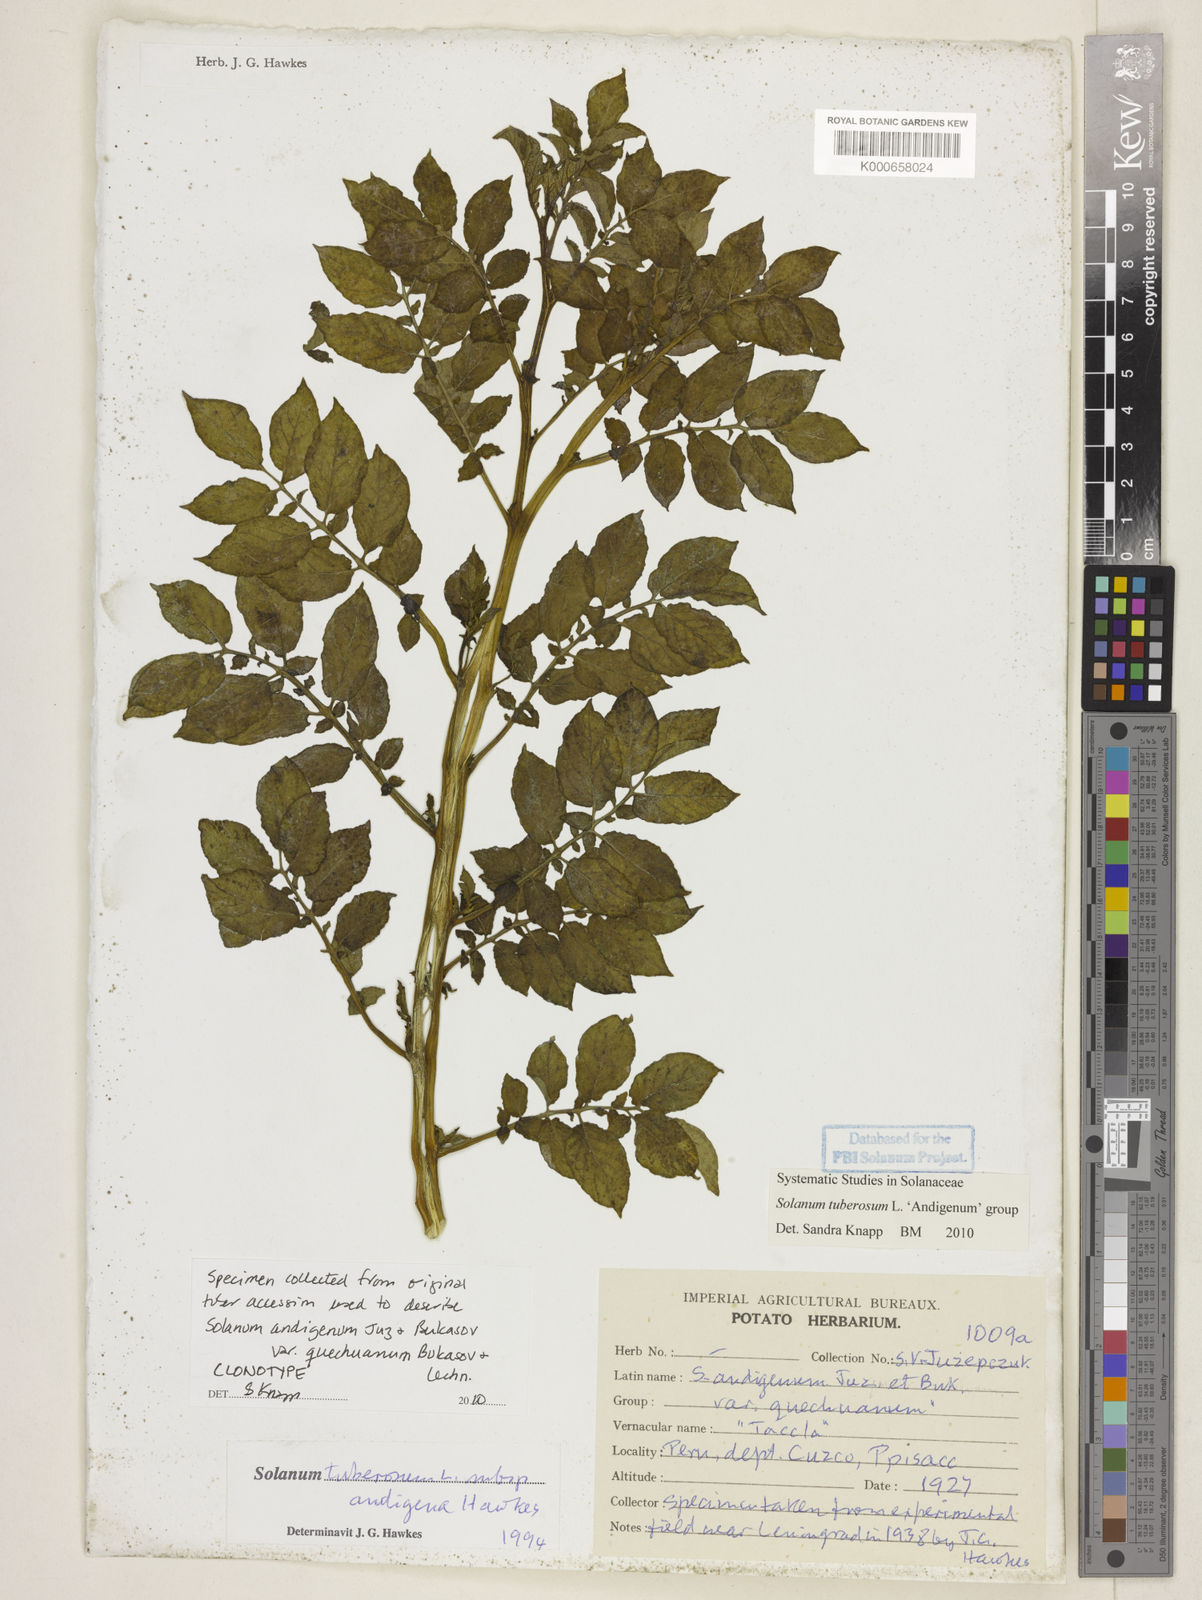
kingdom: Plantae
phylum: Tracheophyta
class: Magnoliopsida
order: Solanales
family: Solanaceae
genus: Solanum
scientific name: Solanum tuberosum
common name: Potato
